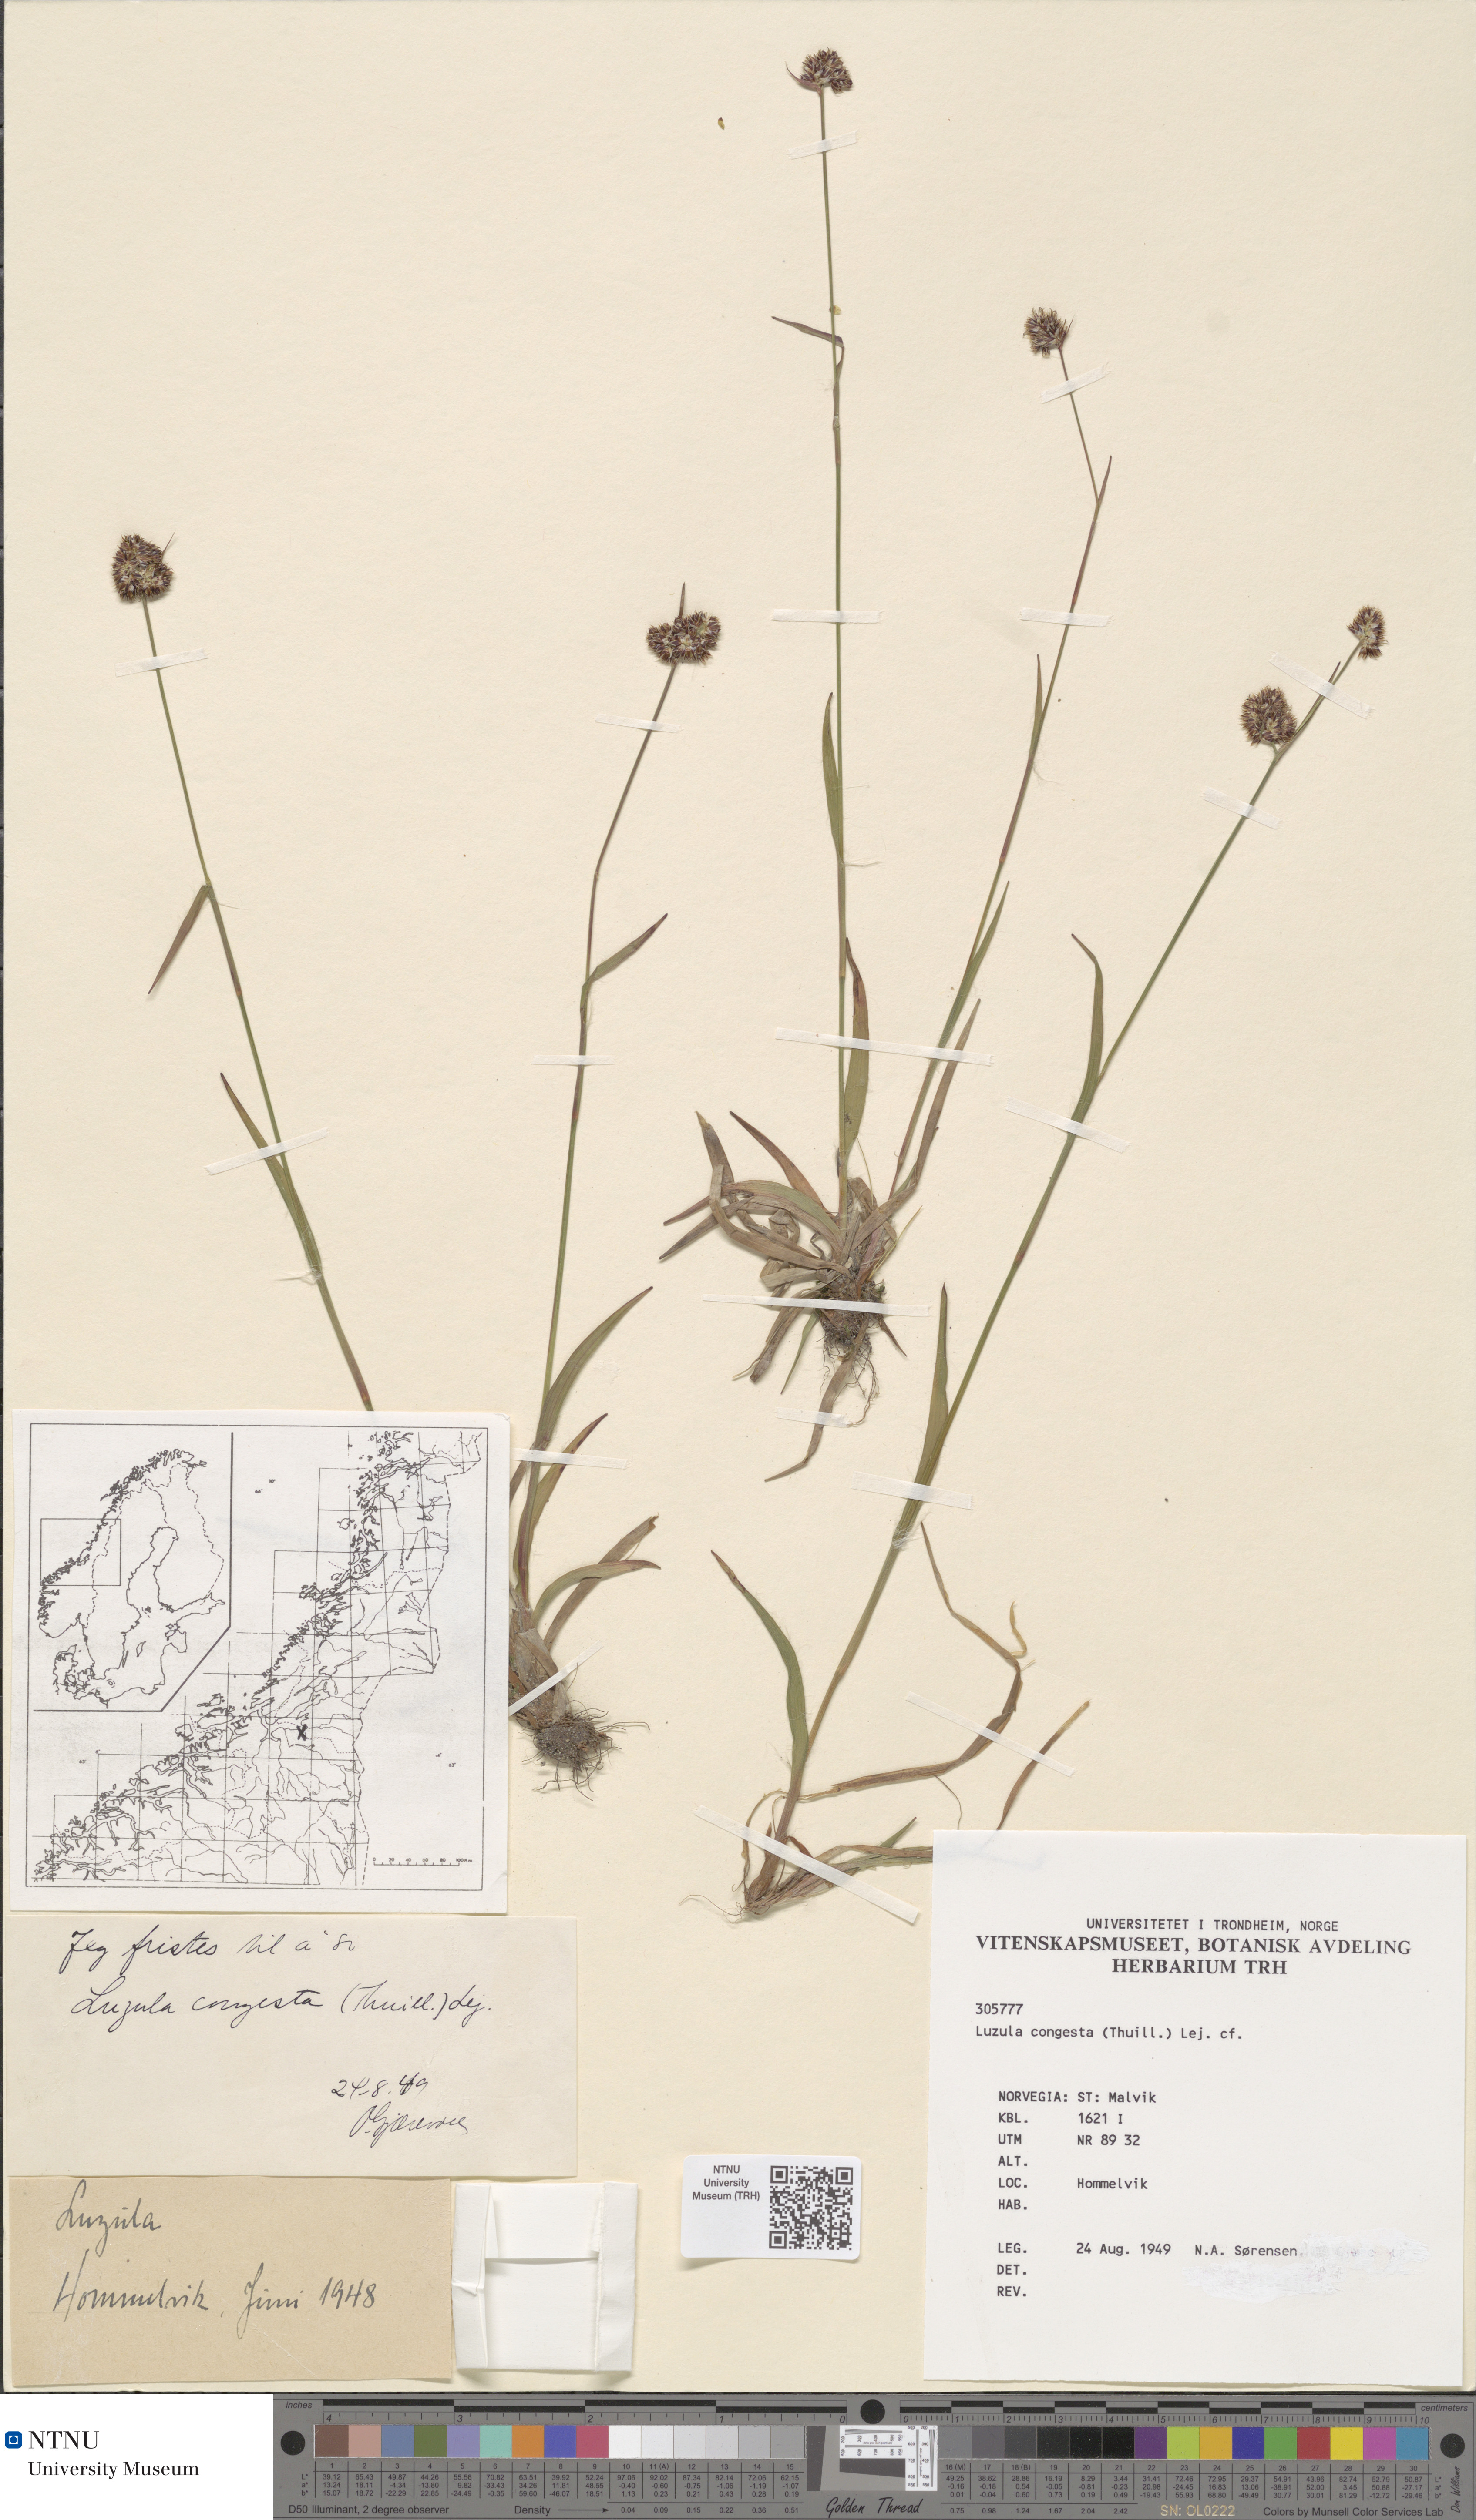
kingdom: Plantae
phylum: Tracheophyta
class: Liliopsida
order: Poales
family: Juncaceae
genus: Luzula
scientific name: Luzula congesta
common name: Heath woodrush
